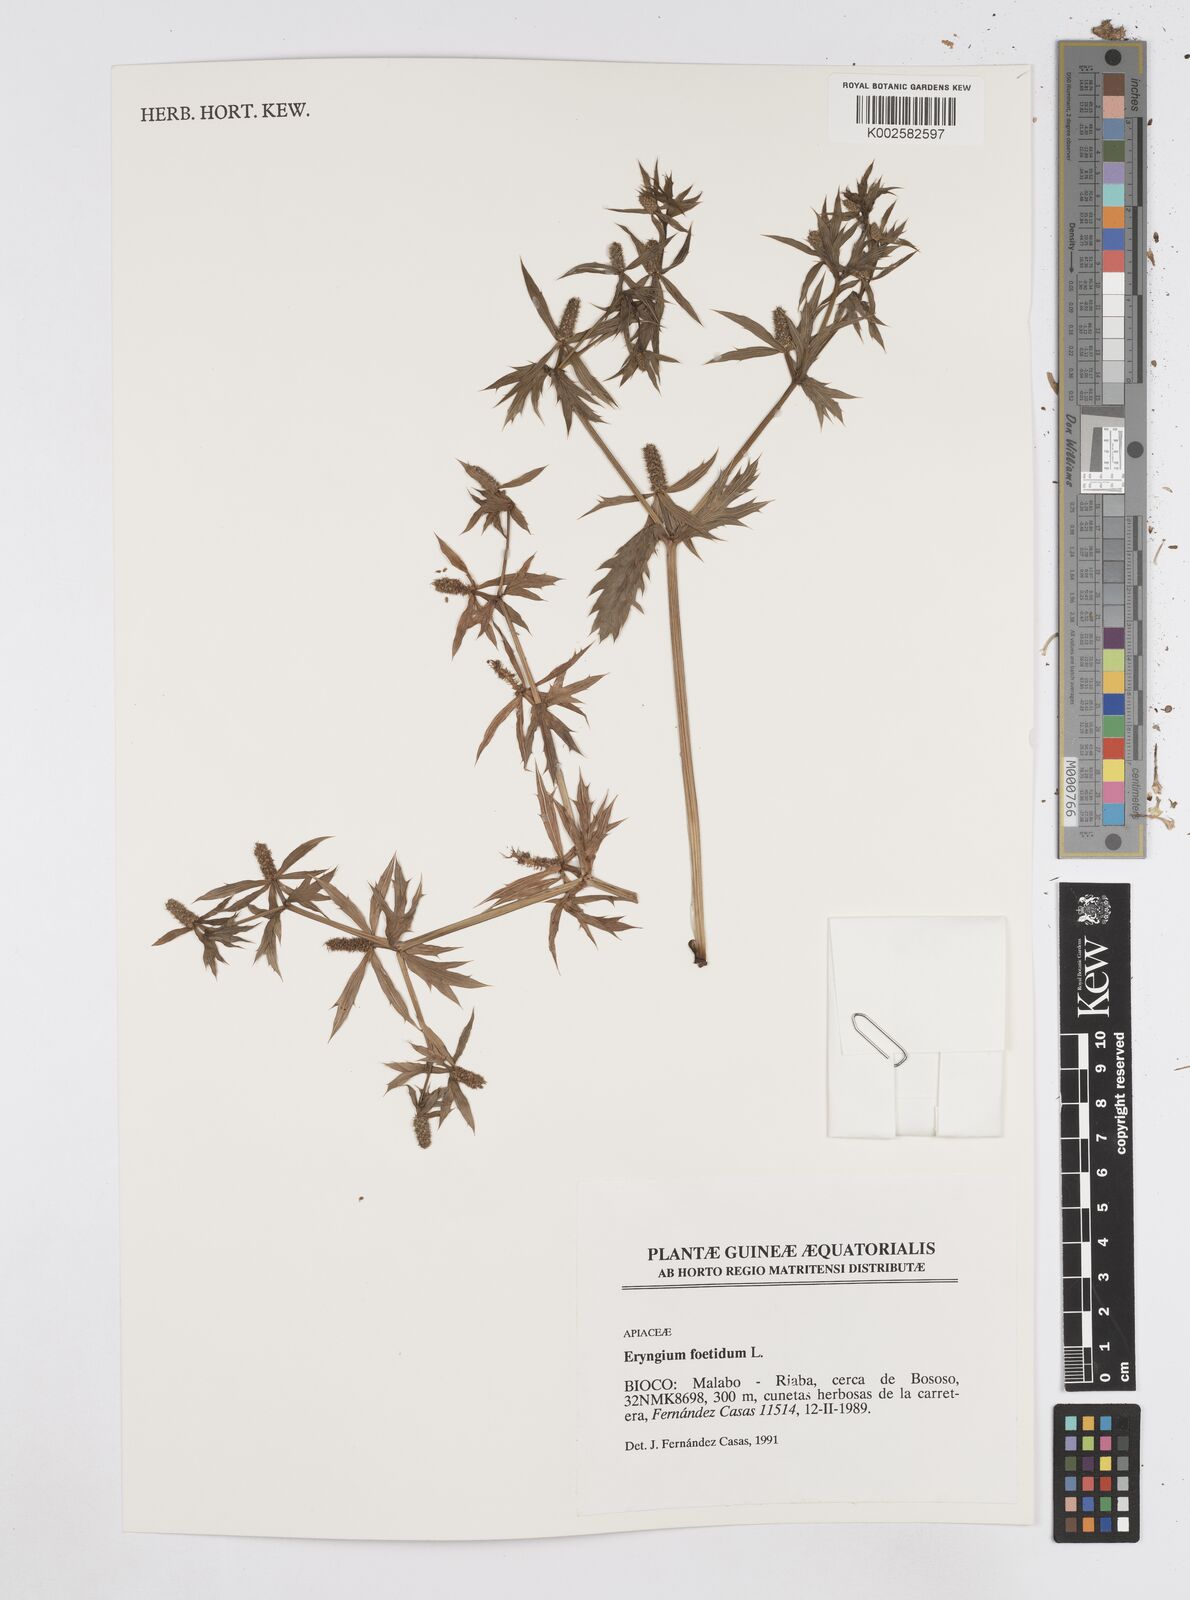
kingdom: Plantae
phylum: Tracheophyta
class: Magnoliopsida
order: Apiales
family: Apiaceae
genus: Eryngium
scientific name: Eryngium foetidum
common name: Fitweed
